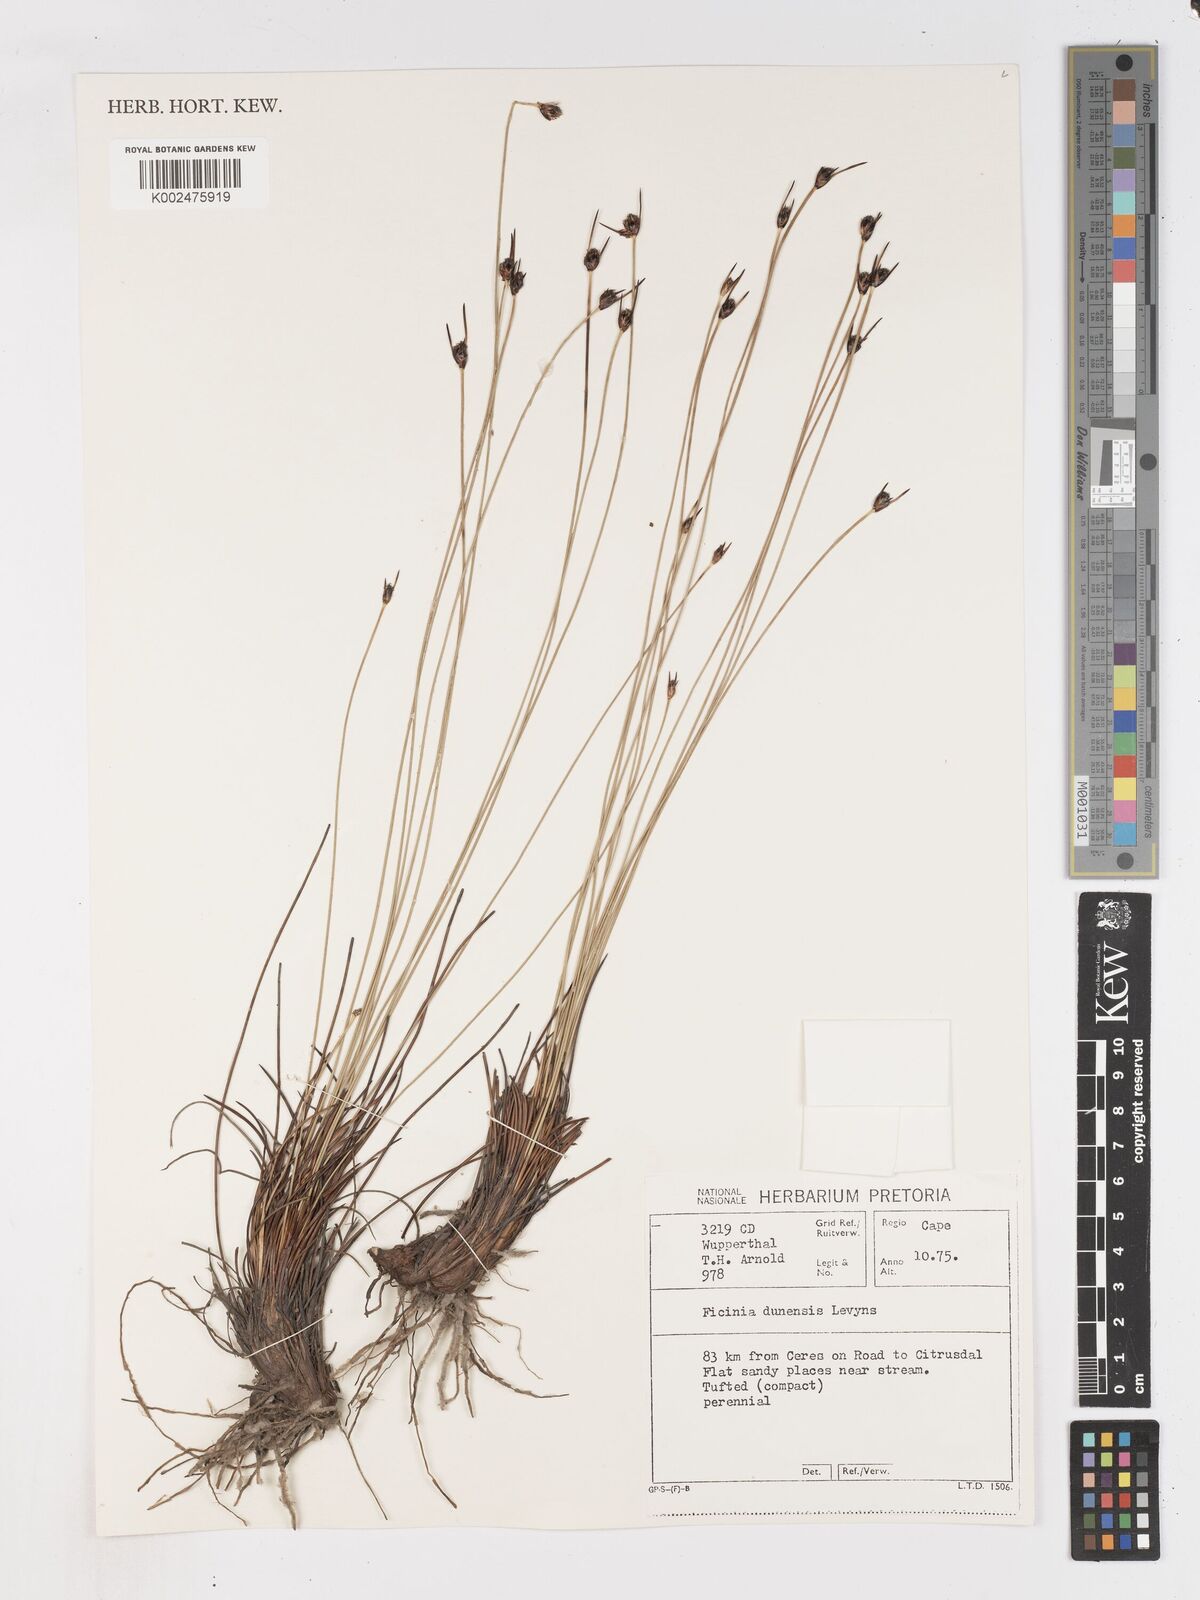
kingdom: Plantae
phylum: Tracheophyta
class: Liliopsida
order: Poales
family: Cyperaceae
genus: Ficinia
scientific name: Ficinia dunensis
